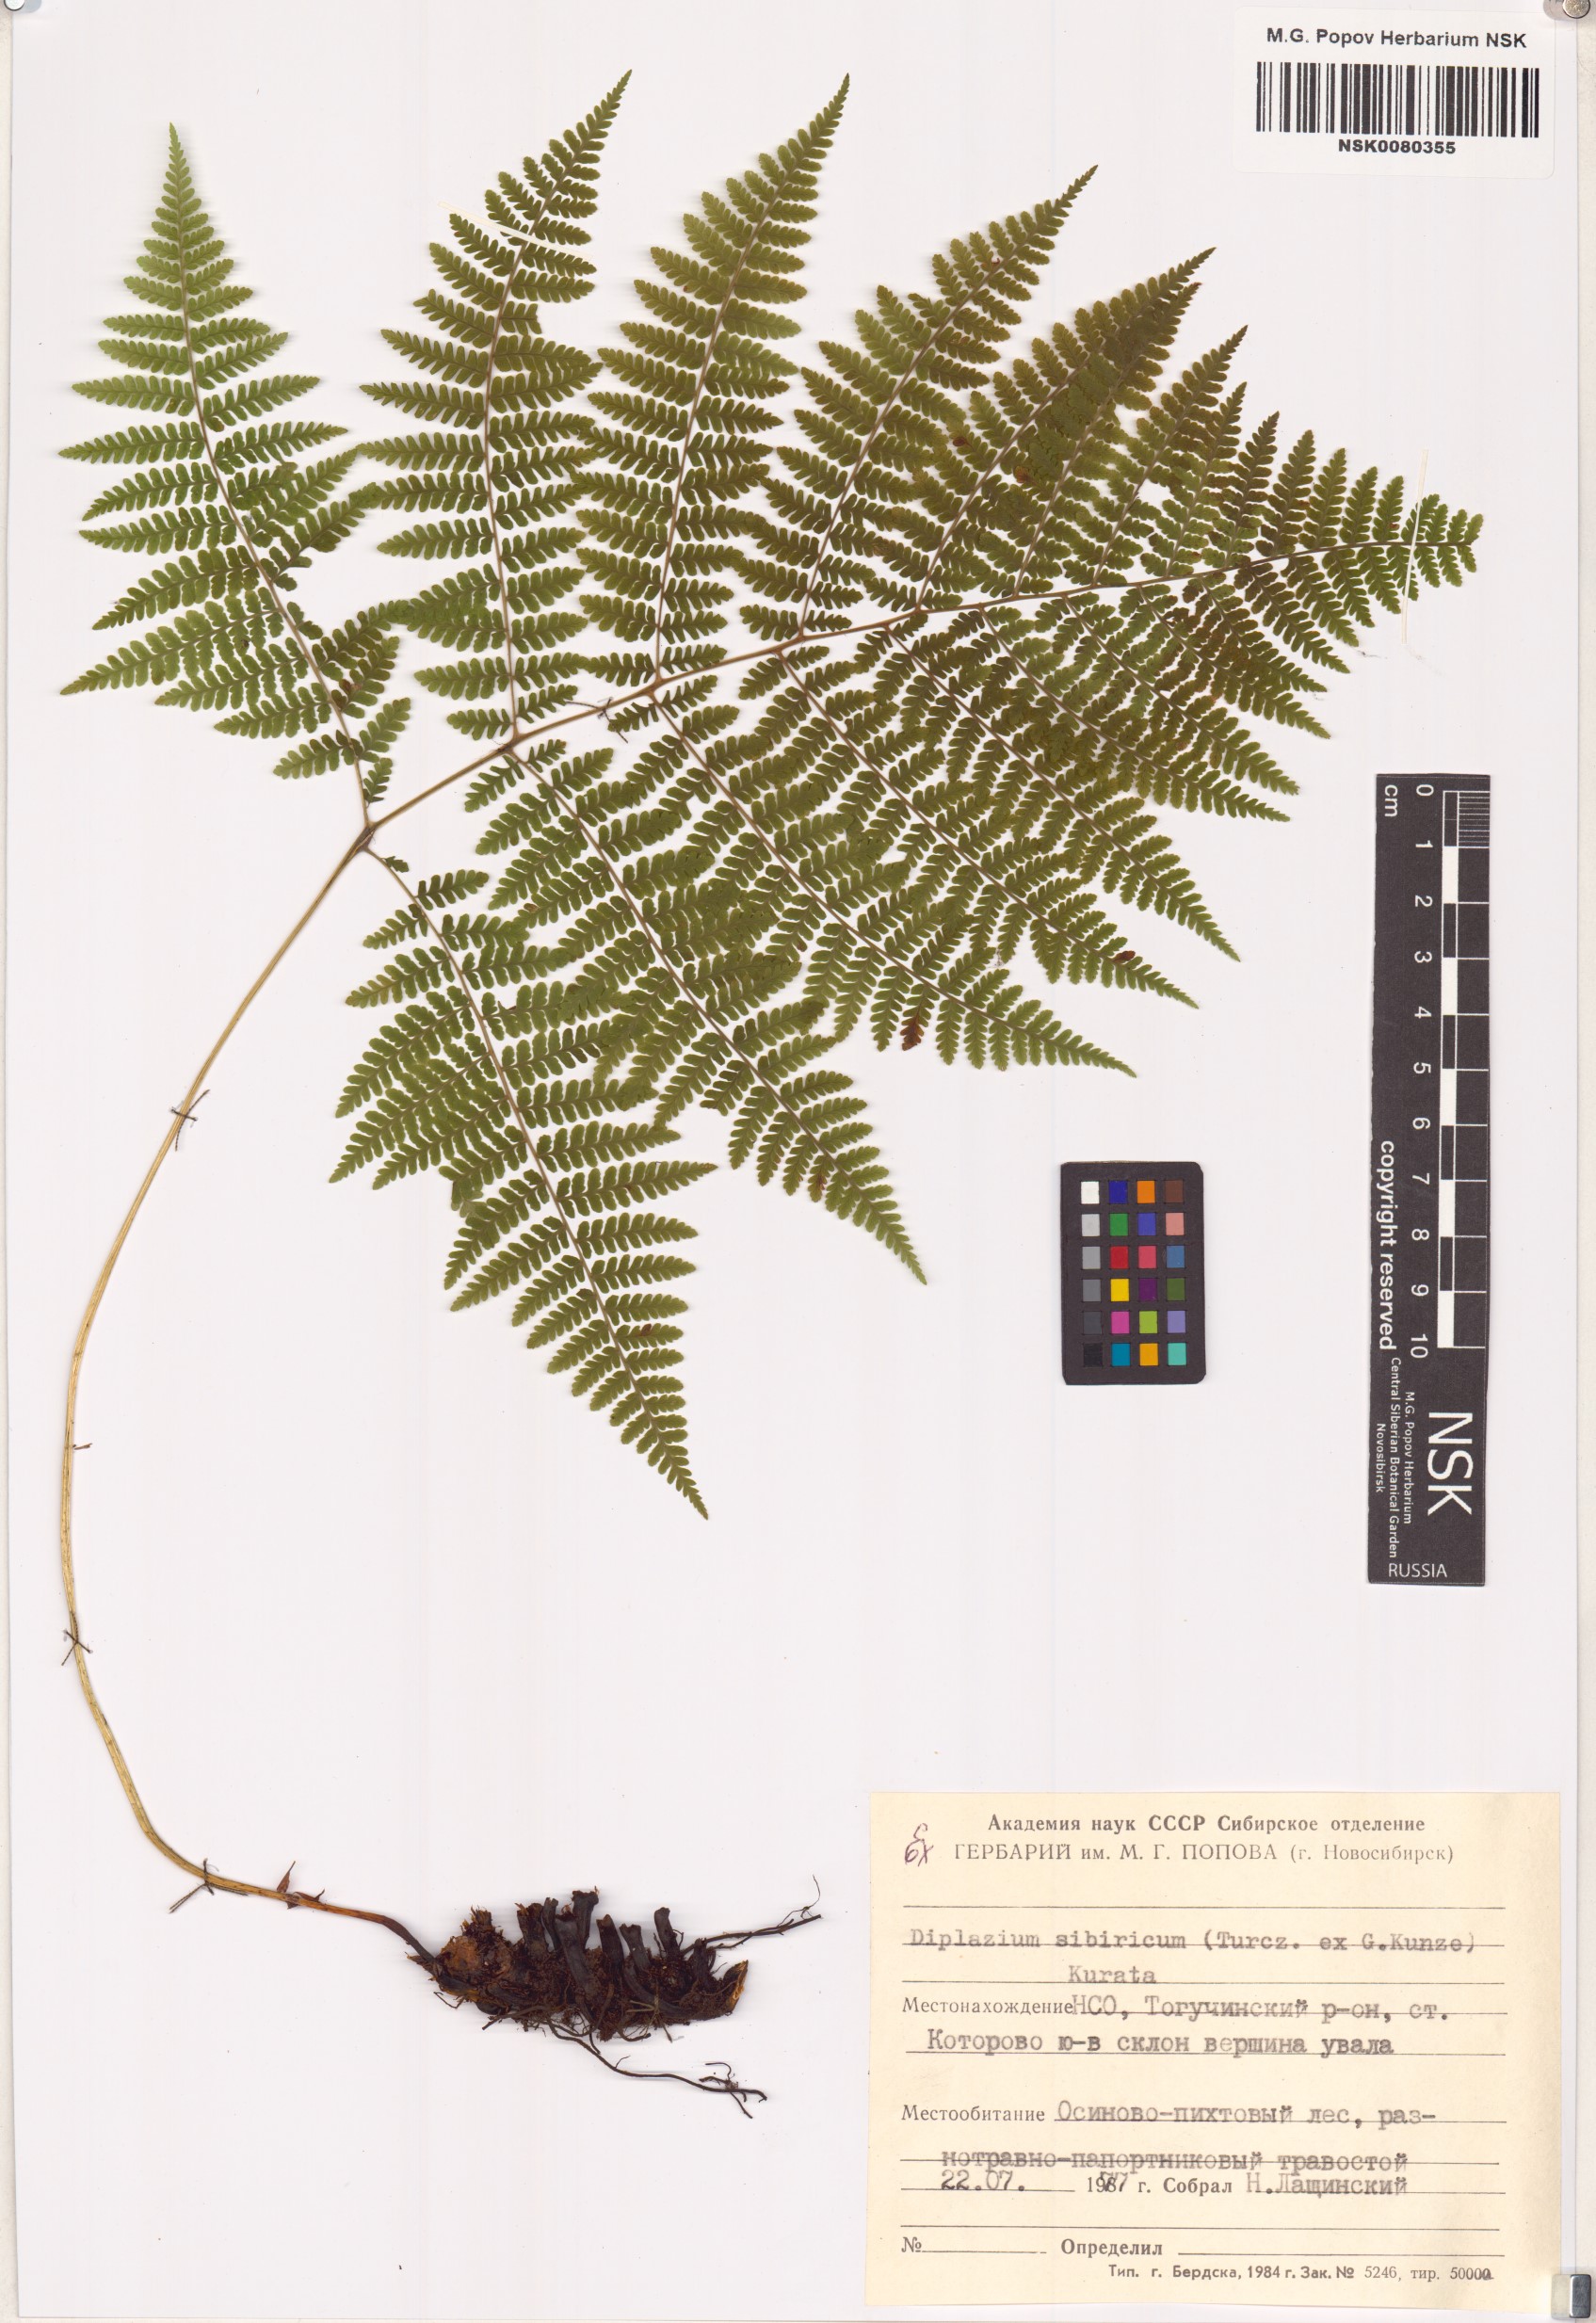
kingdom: Plantae
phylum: Tracheophyta
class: Polypodiopsida
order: Polypodiales
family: Athyriaceae
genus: Diplazium
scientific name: Diplazium sibiricum
